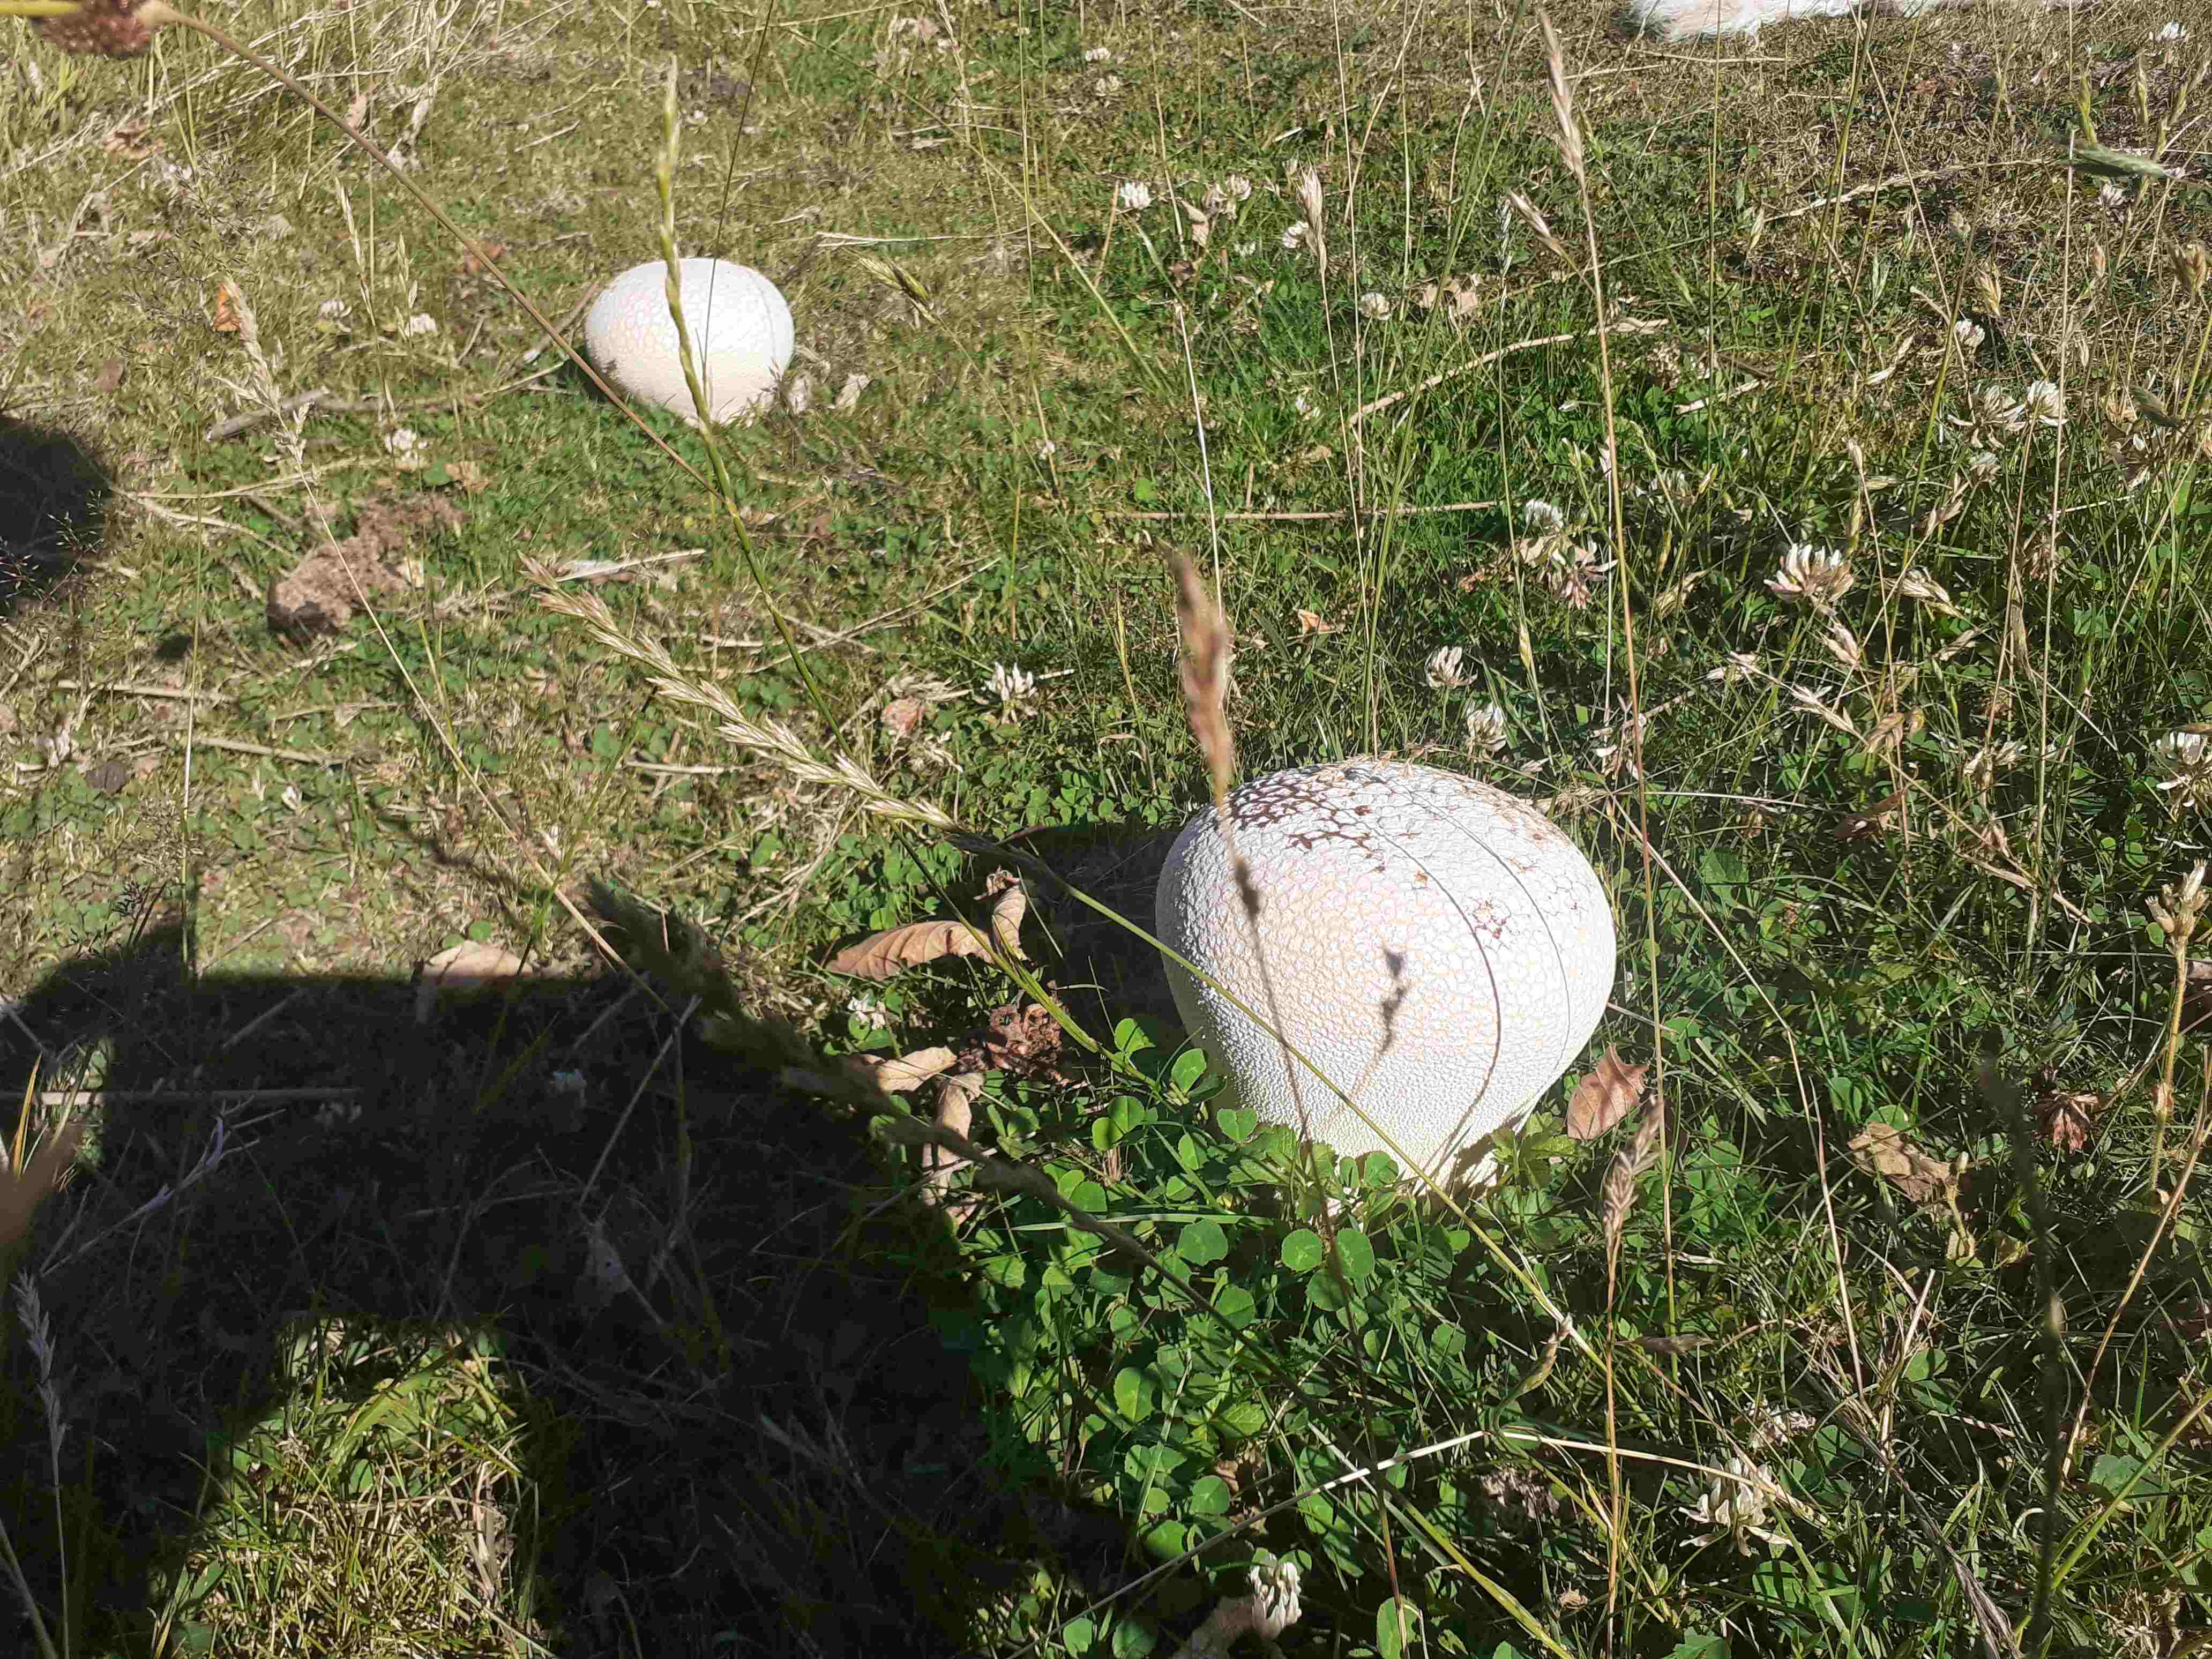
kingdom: Fungi
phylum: Basidiomycota
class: Agaricomycetes
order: Agaricales
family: Lycoperdaceae
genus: Bovistella
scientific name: Bovistella utriformis
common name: skællet støvbold
